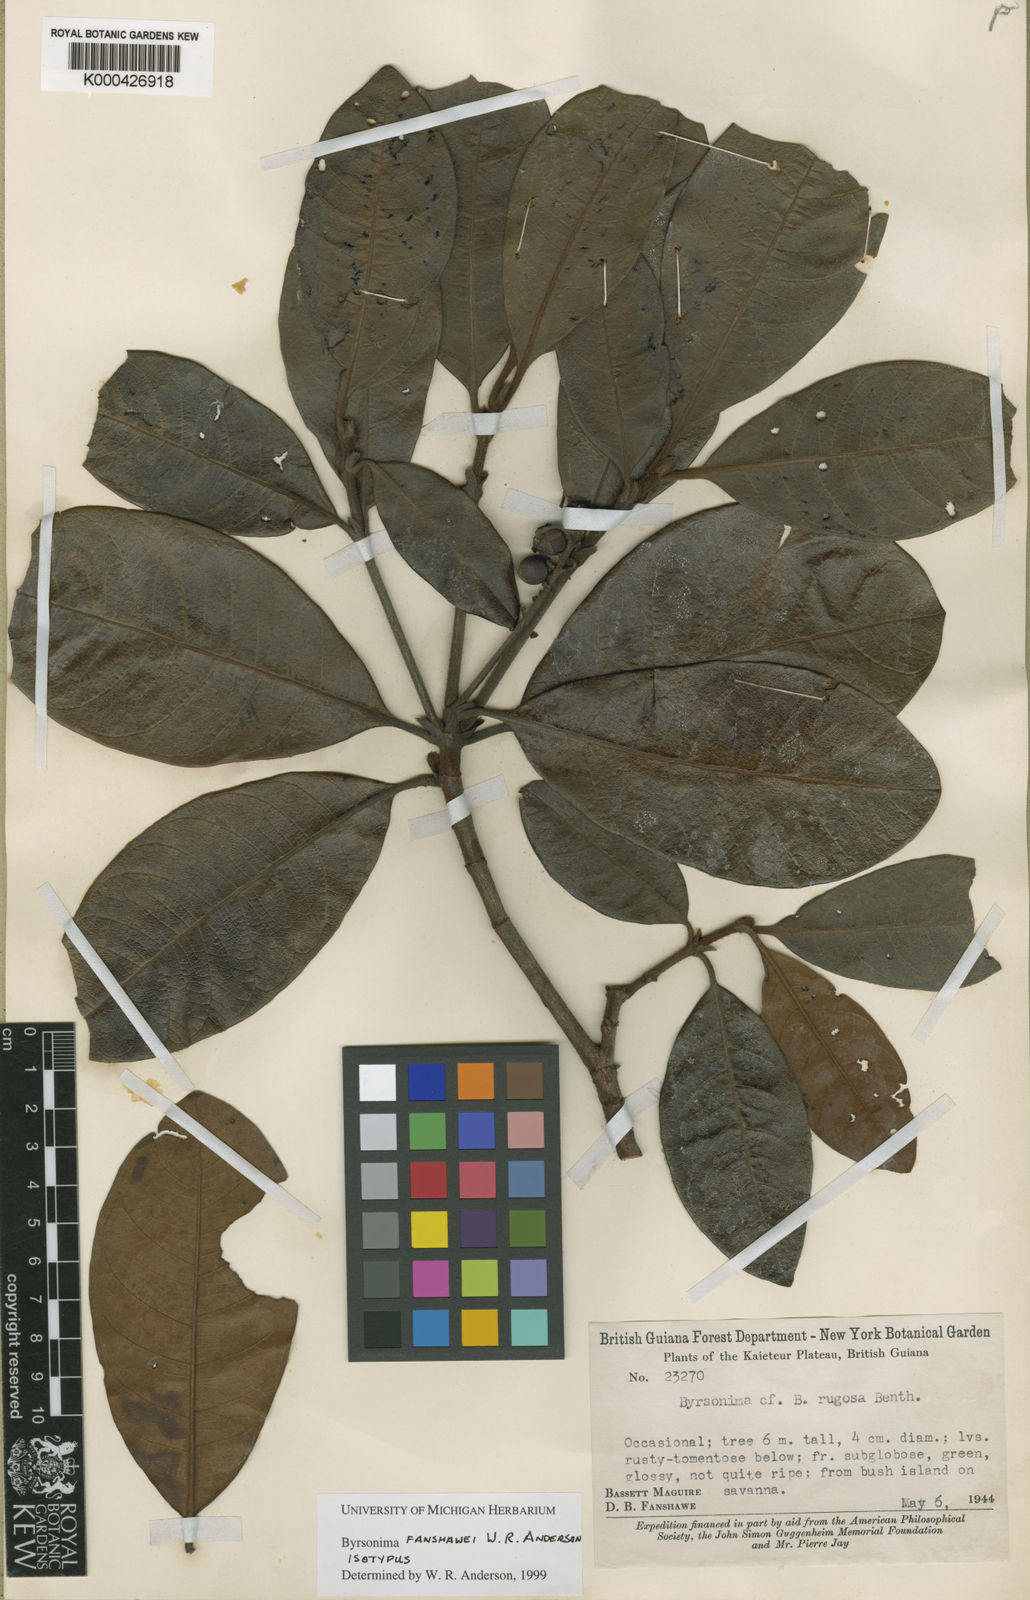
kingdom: Plantae
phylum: Tracheophyta
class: Magnoliopsida
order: Malpighiales
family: Malpighiaceae
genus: Byrsonima
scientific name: Byrsonima fanshawei
